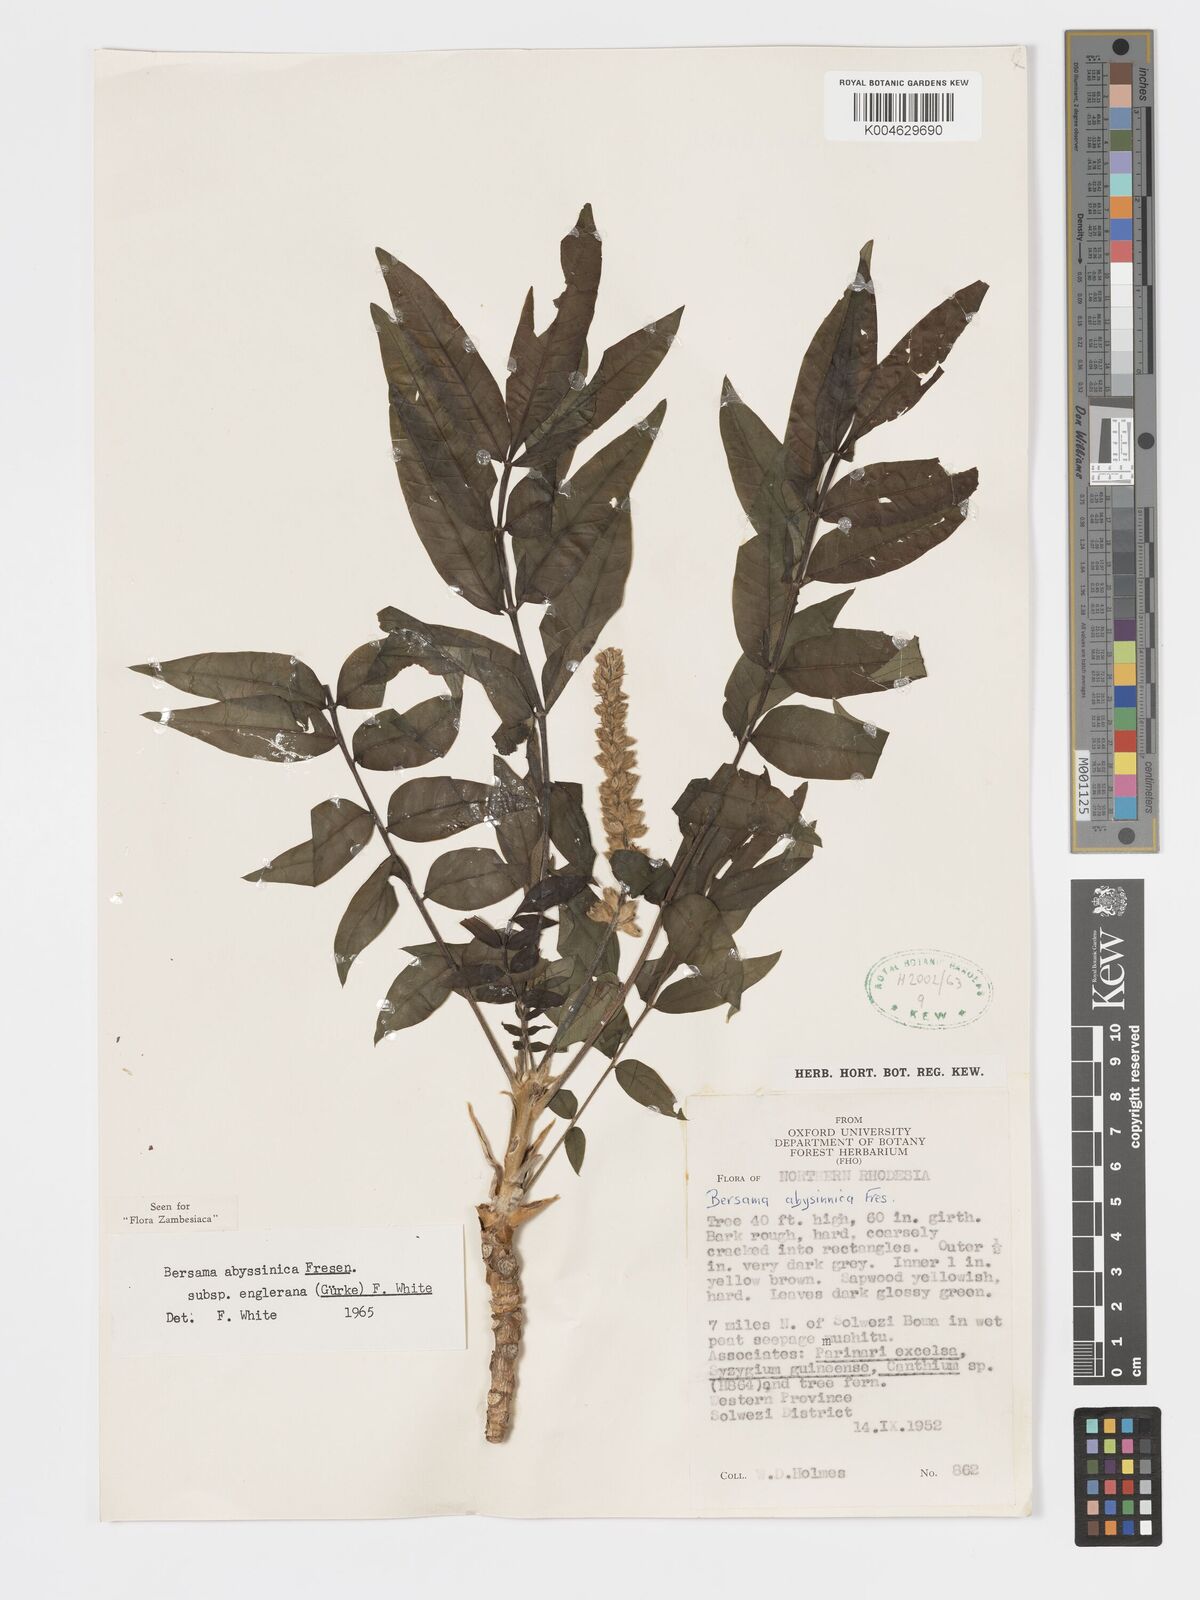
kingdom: Plantae
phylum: Tracheophyta
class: Magnoliopsida
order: Geraniales
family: Melianthaceae
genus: Bersama
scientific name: Bersama abyssinica
